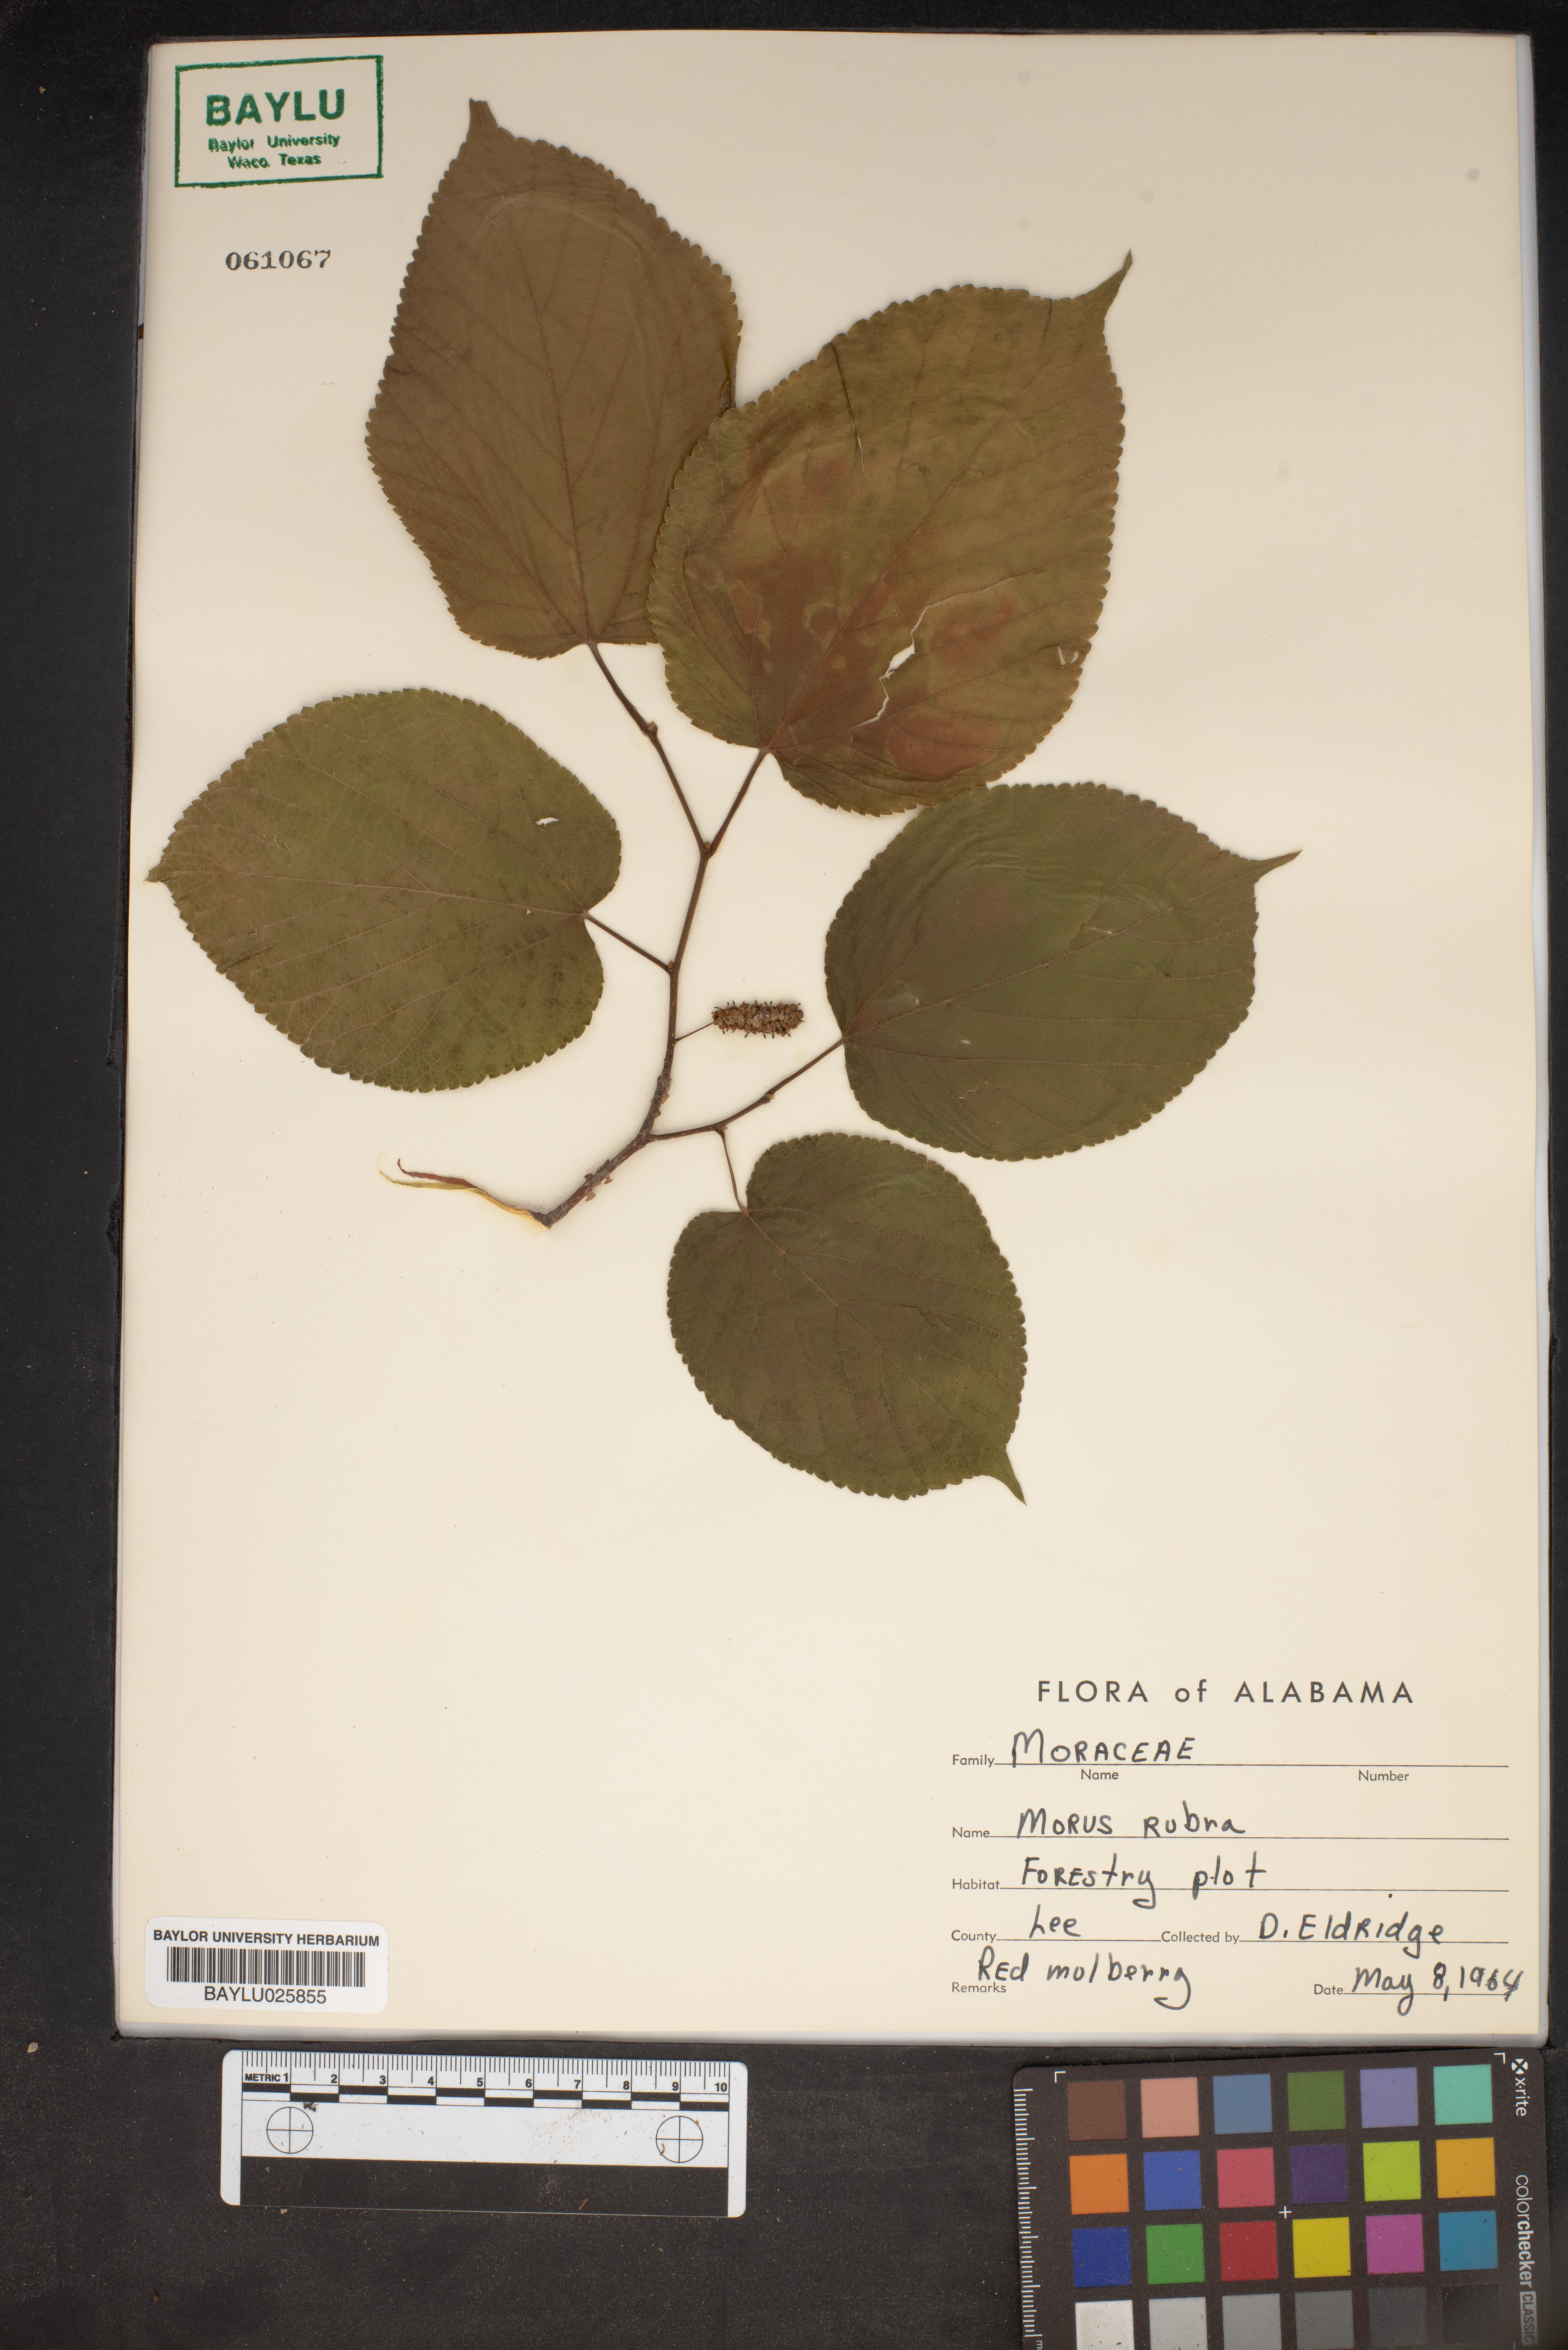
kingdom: Plantae
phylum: Tracheophyta
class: Magnoliopsida
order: Rosales
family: Moraceae
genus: Morus
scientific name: Morus alba
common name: White mulberry
